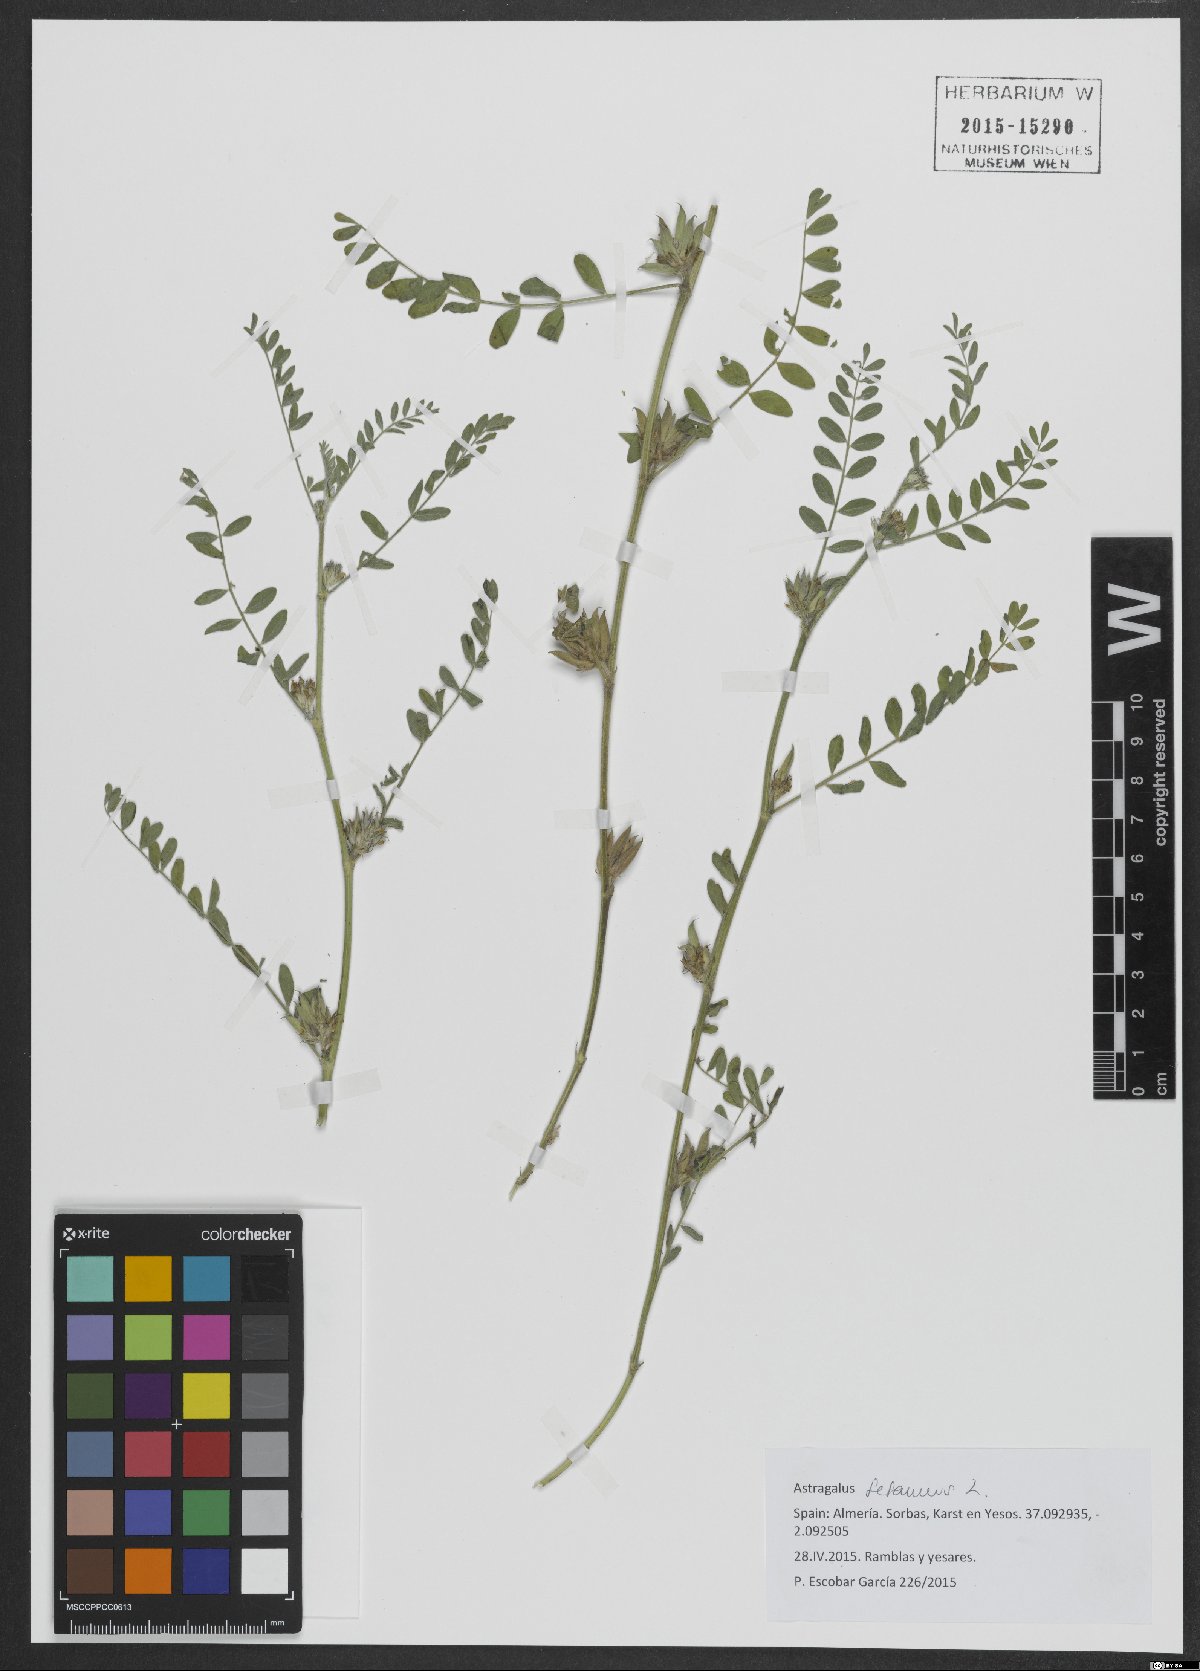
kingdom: Plantae
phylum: Tracheophyta
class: Magnoliopsida
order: Fabales
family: Fabaceae
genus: Astragalus
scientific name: Astragalus sesameus
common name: Purple milk-vetch
